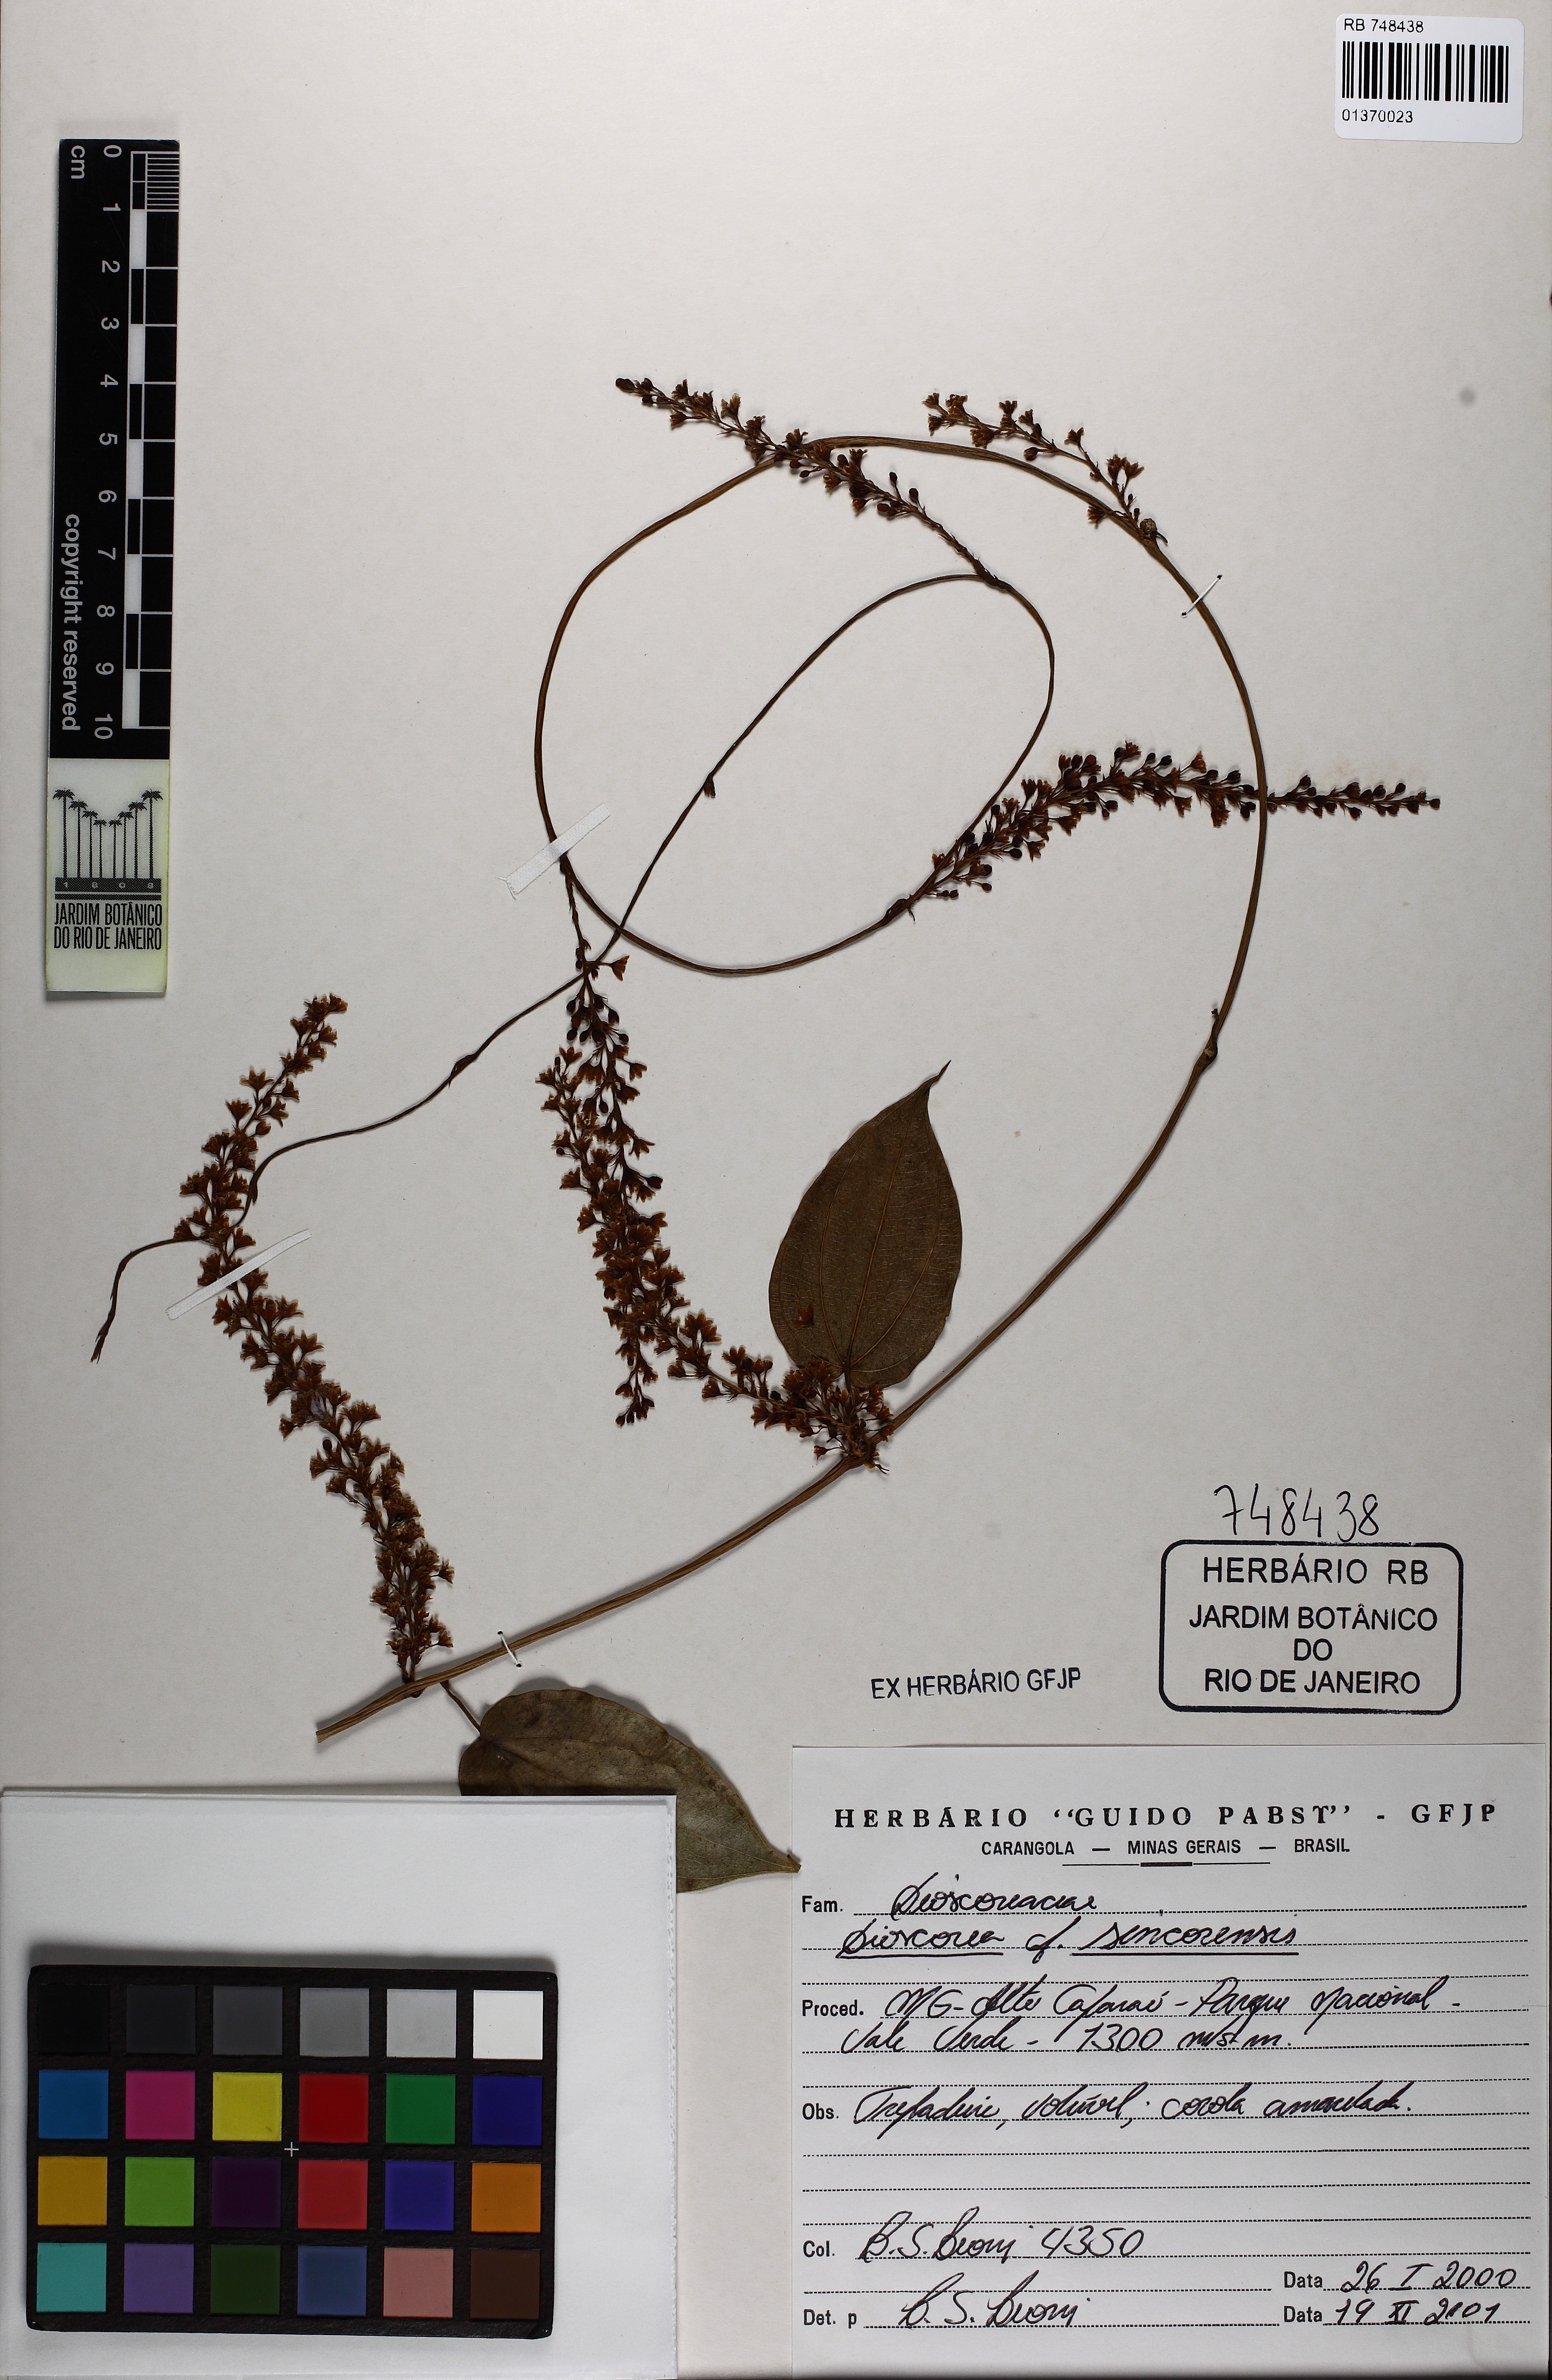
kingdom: Plantae
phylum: Tracheophyta
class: Liliopsida
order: Dioscoreales
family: Dioscoreaceae
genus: Dioscorea
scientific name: Dioscorea sincorensis
